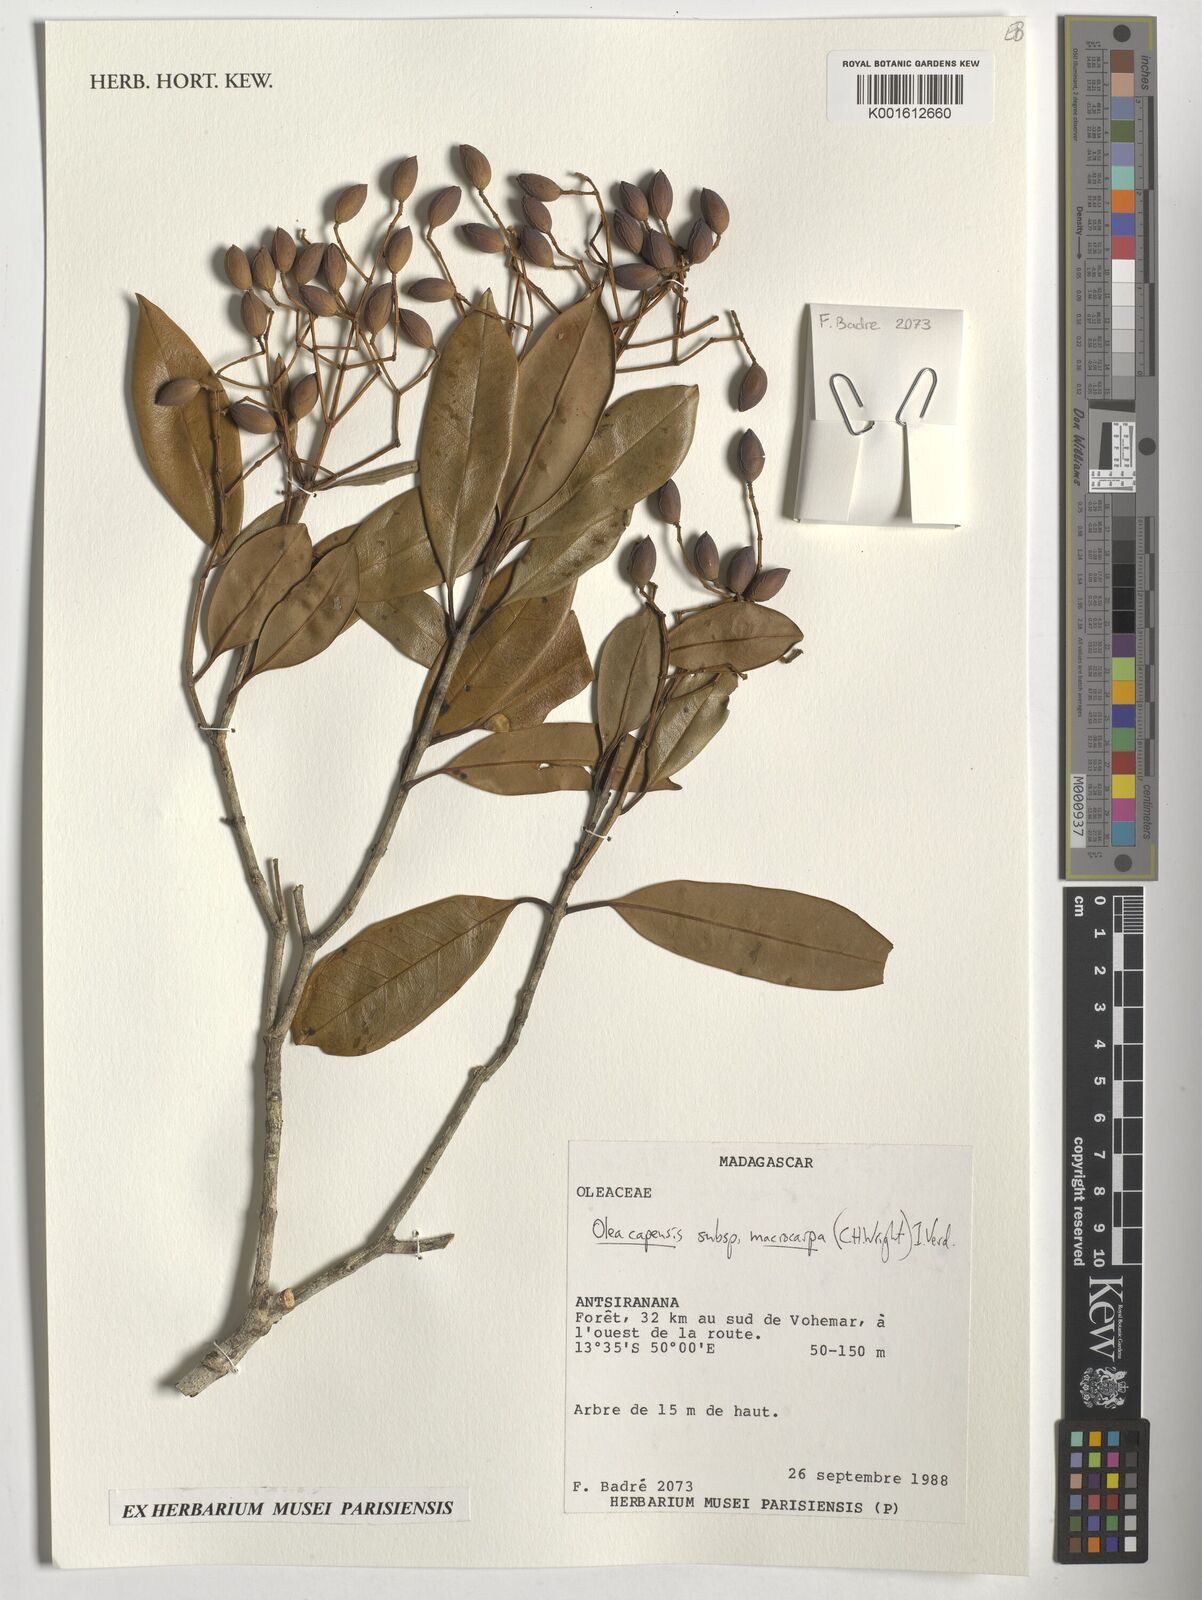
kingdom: Plantae
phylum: Tracheophyta
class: Magnoliopsida
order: Lamiales
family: Oleaceae
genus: Olea
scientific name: Olea capensis
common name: Black ironwood
